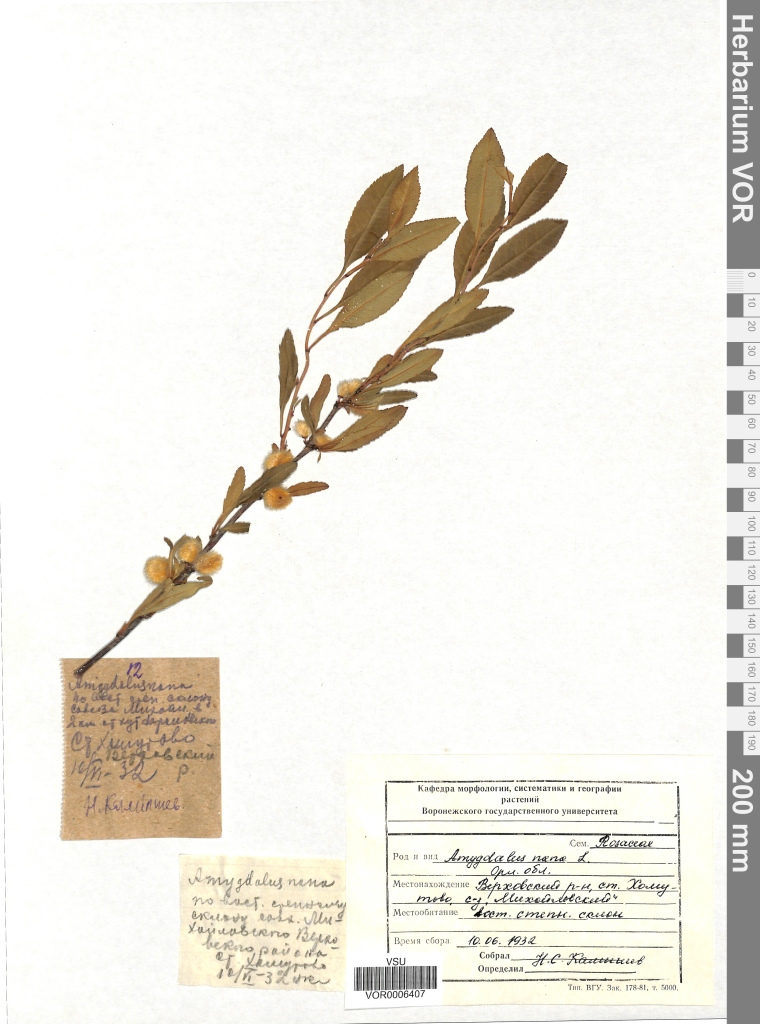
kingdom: Plantae
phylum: Tracheophyta
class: Magnoliopsida
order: Rosales
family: Rosaceae
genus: Prunus
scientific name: Prunus tenella
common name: Dwarf russian almond
